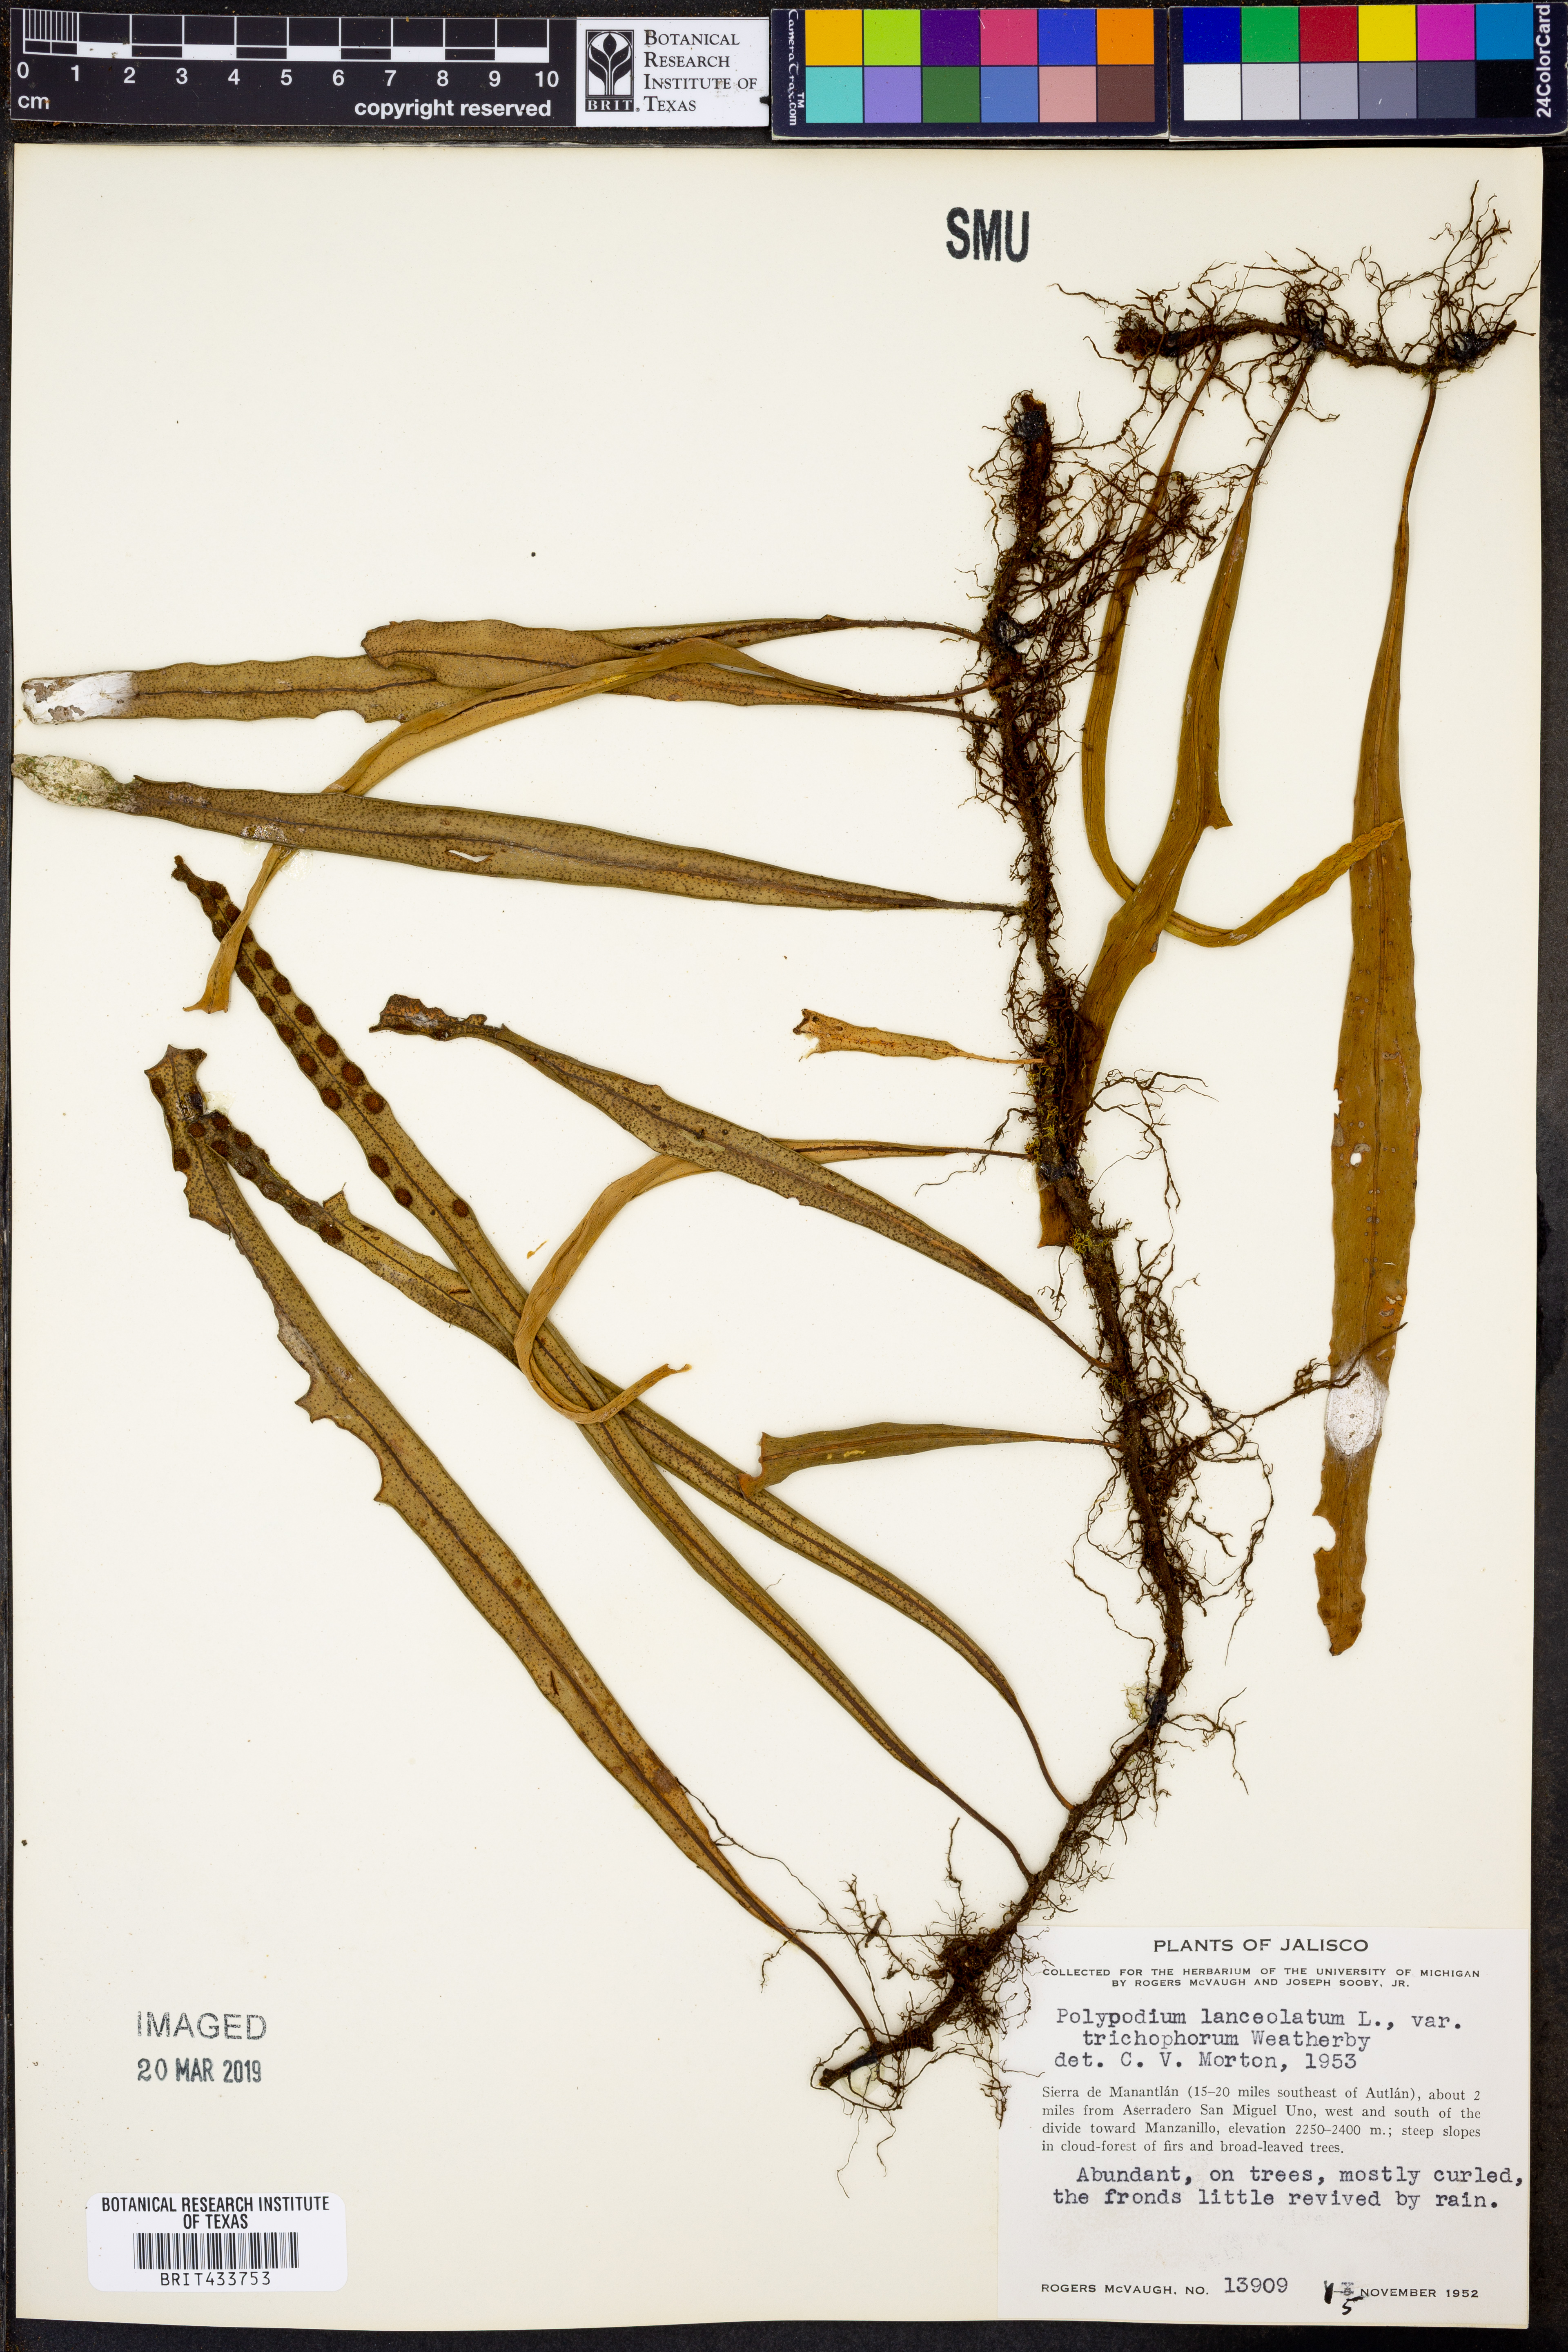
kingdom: Plantae
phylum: Tracheophyta
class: Polypodiopsida
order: Polypodiales
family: Polypodiaceae
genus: Pleopeltis
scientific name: Pleopeltis mexicana
